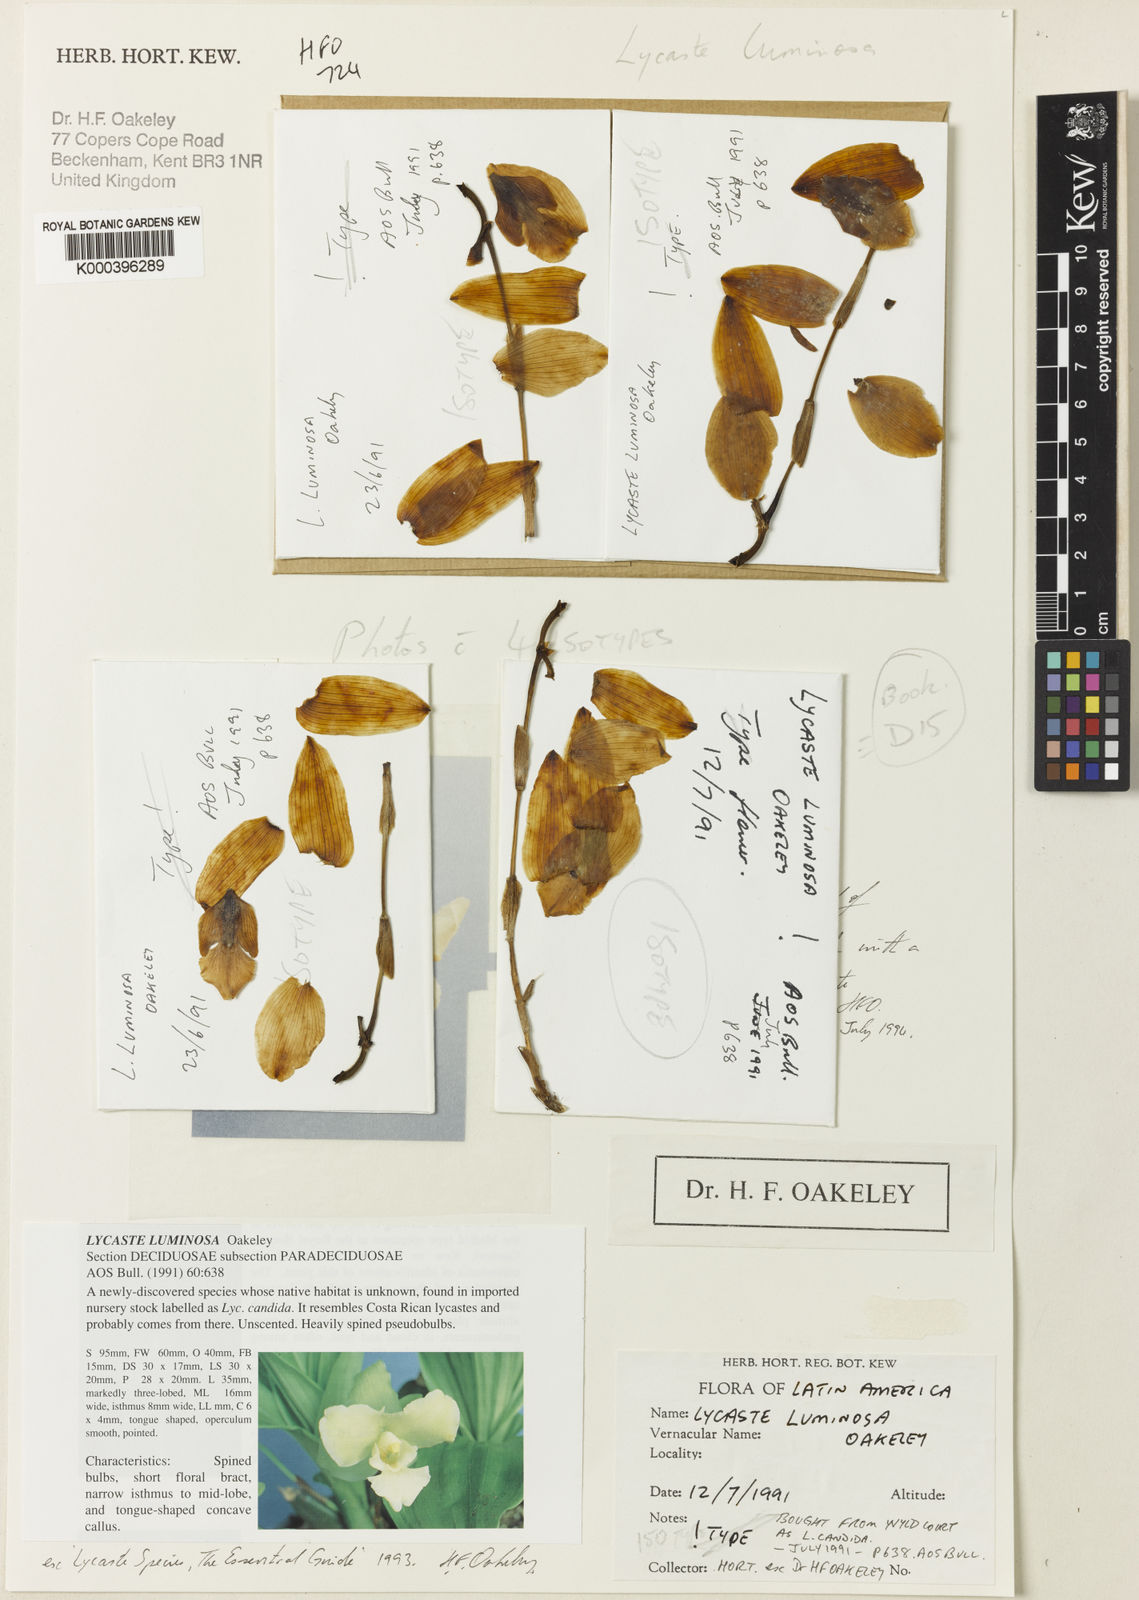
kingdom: Plantae
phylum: Tracheophyta
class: Liliopsida
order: Asparagales
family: Orchidaceae
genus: Lycaste
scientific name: Lycaste luminosa
